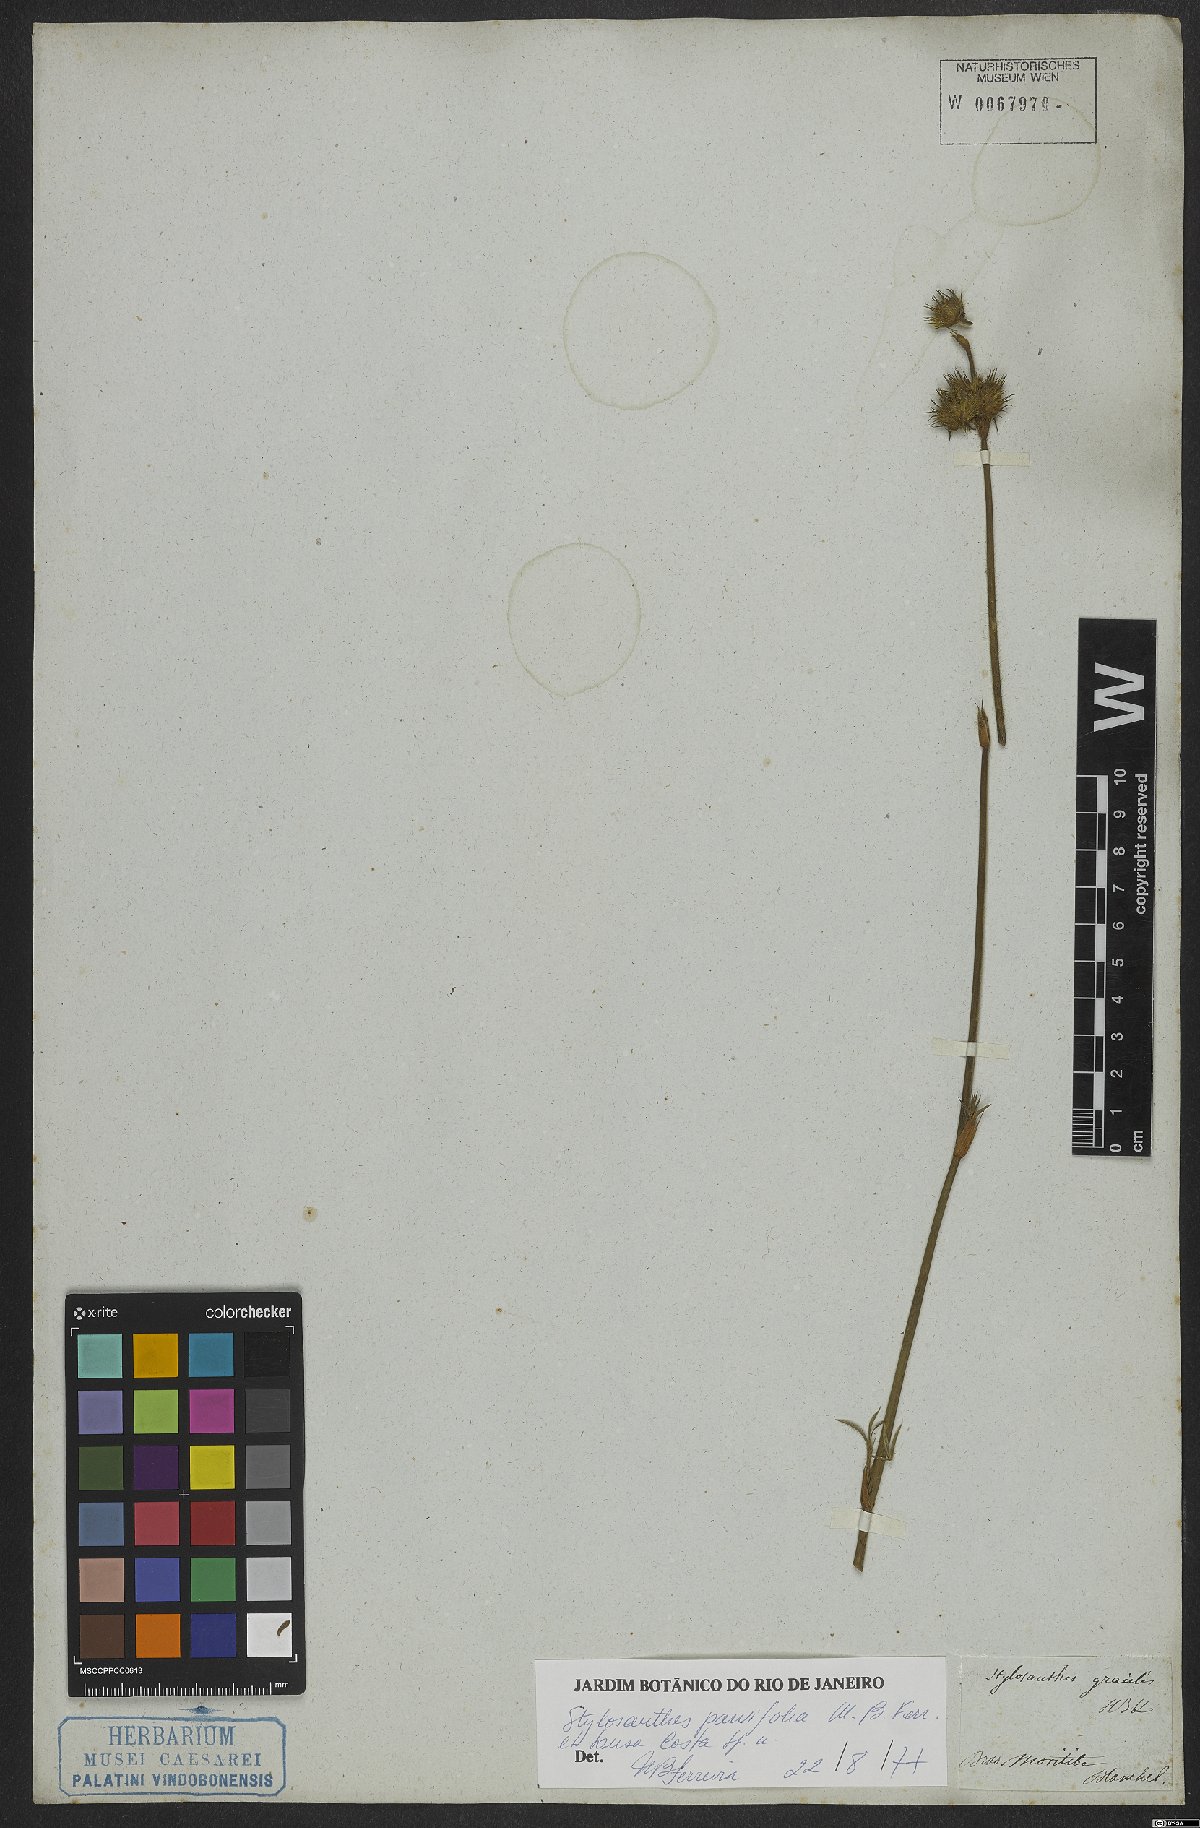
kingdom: Plantae
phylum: Tracheophyta
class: Magnoliopsida
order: Fabales
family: Fabaceae
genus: Stylosanthes
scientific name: Stylosanthes
